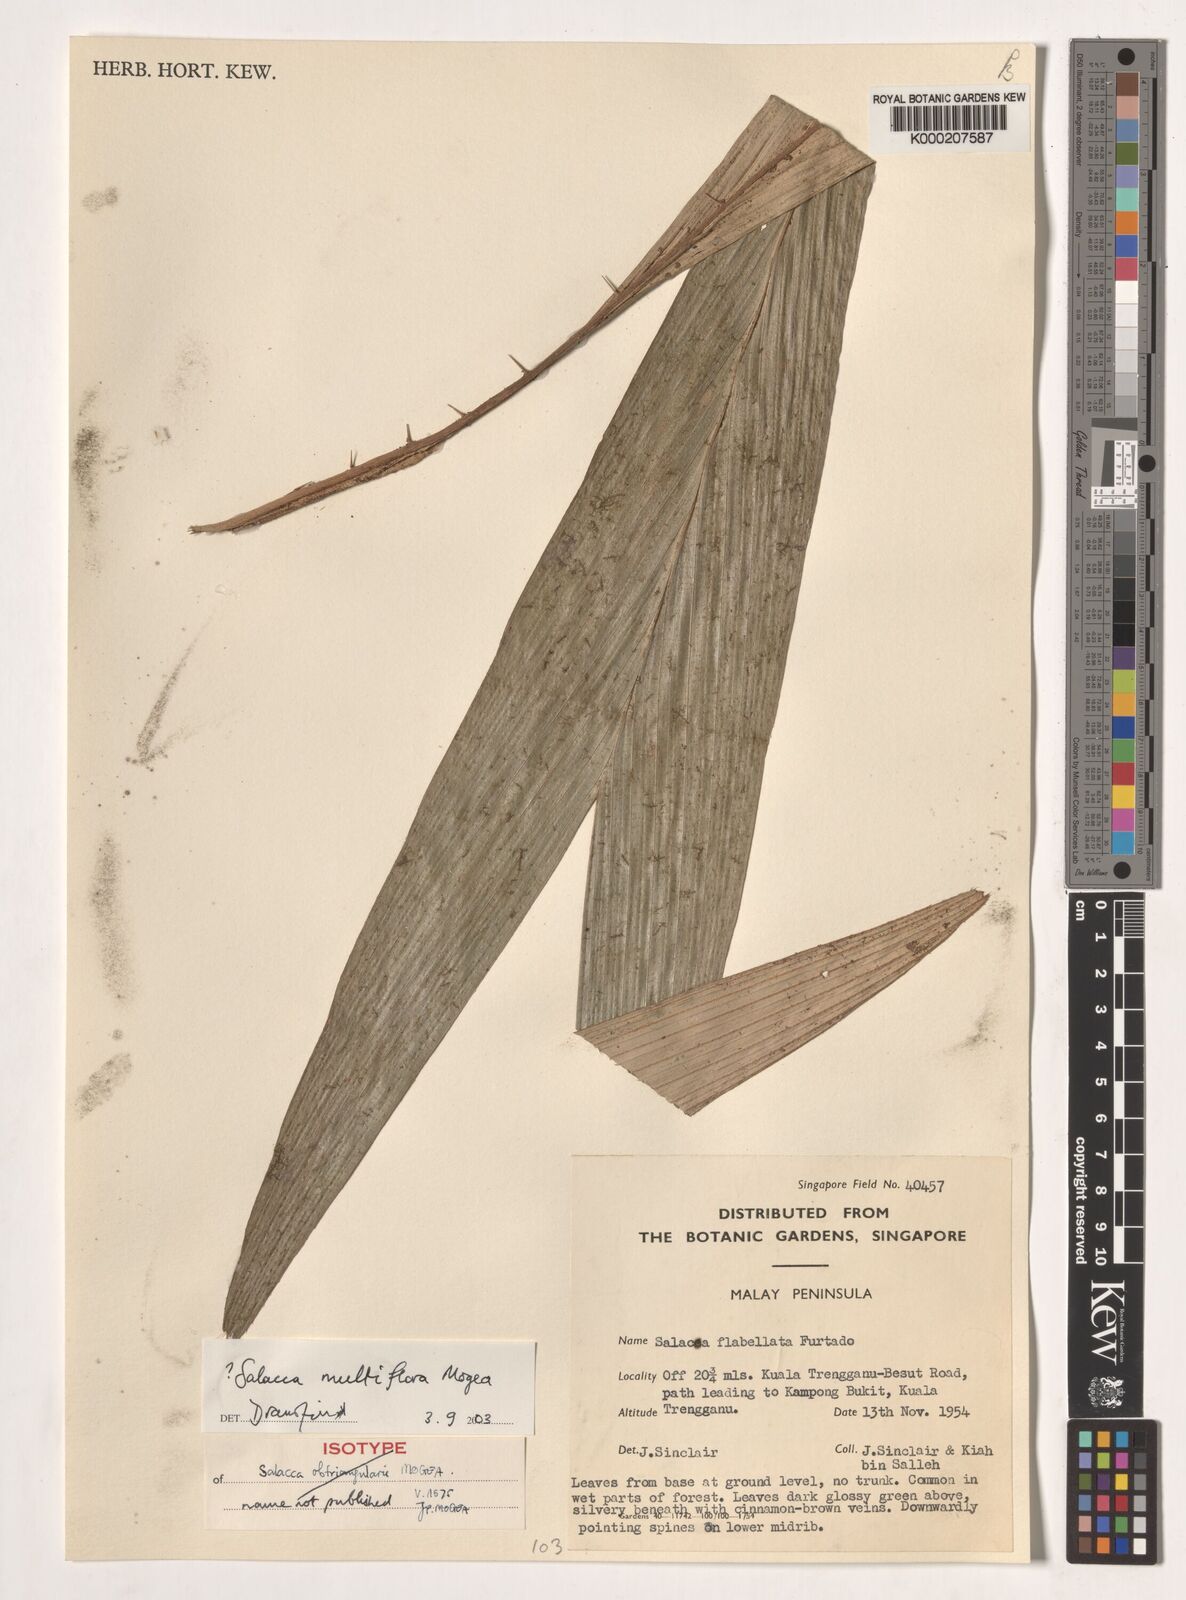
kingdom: Plantae
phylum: Tracheophyta
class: Liliopsida
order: Arecales
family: Arecaceae
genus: Salacca
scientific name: Salacca multiflora
